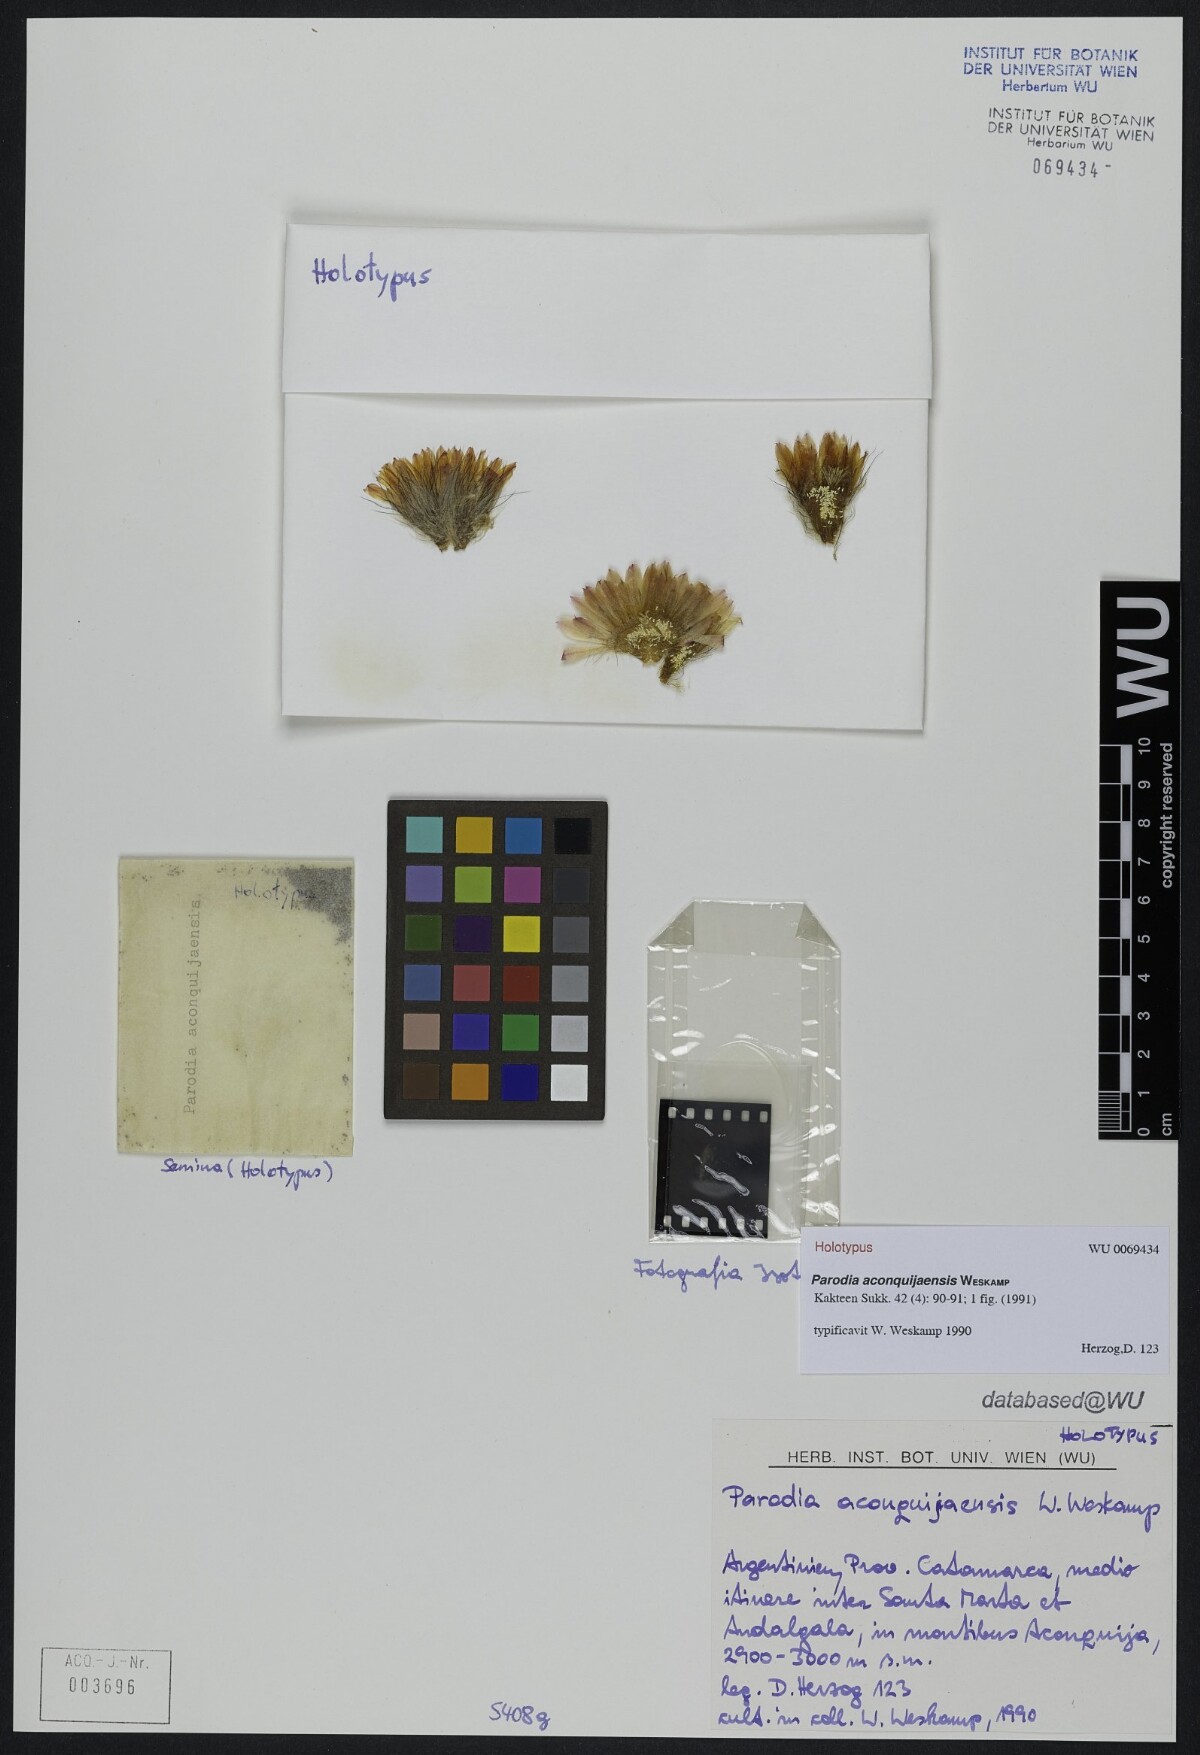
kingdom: Plantae
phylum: Tracheophyta
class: Magnoliopsida
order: Caryophyllales
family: Cactaceae
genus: Parodia
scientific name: Parodia microsperma
